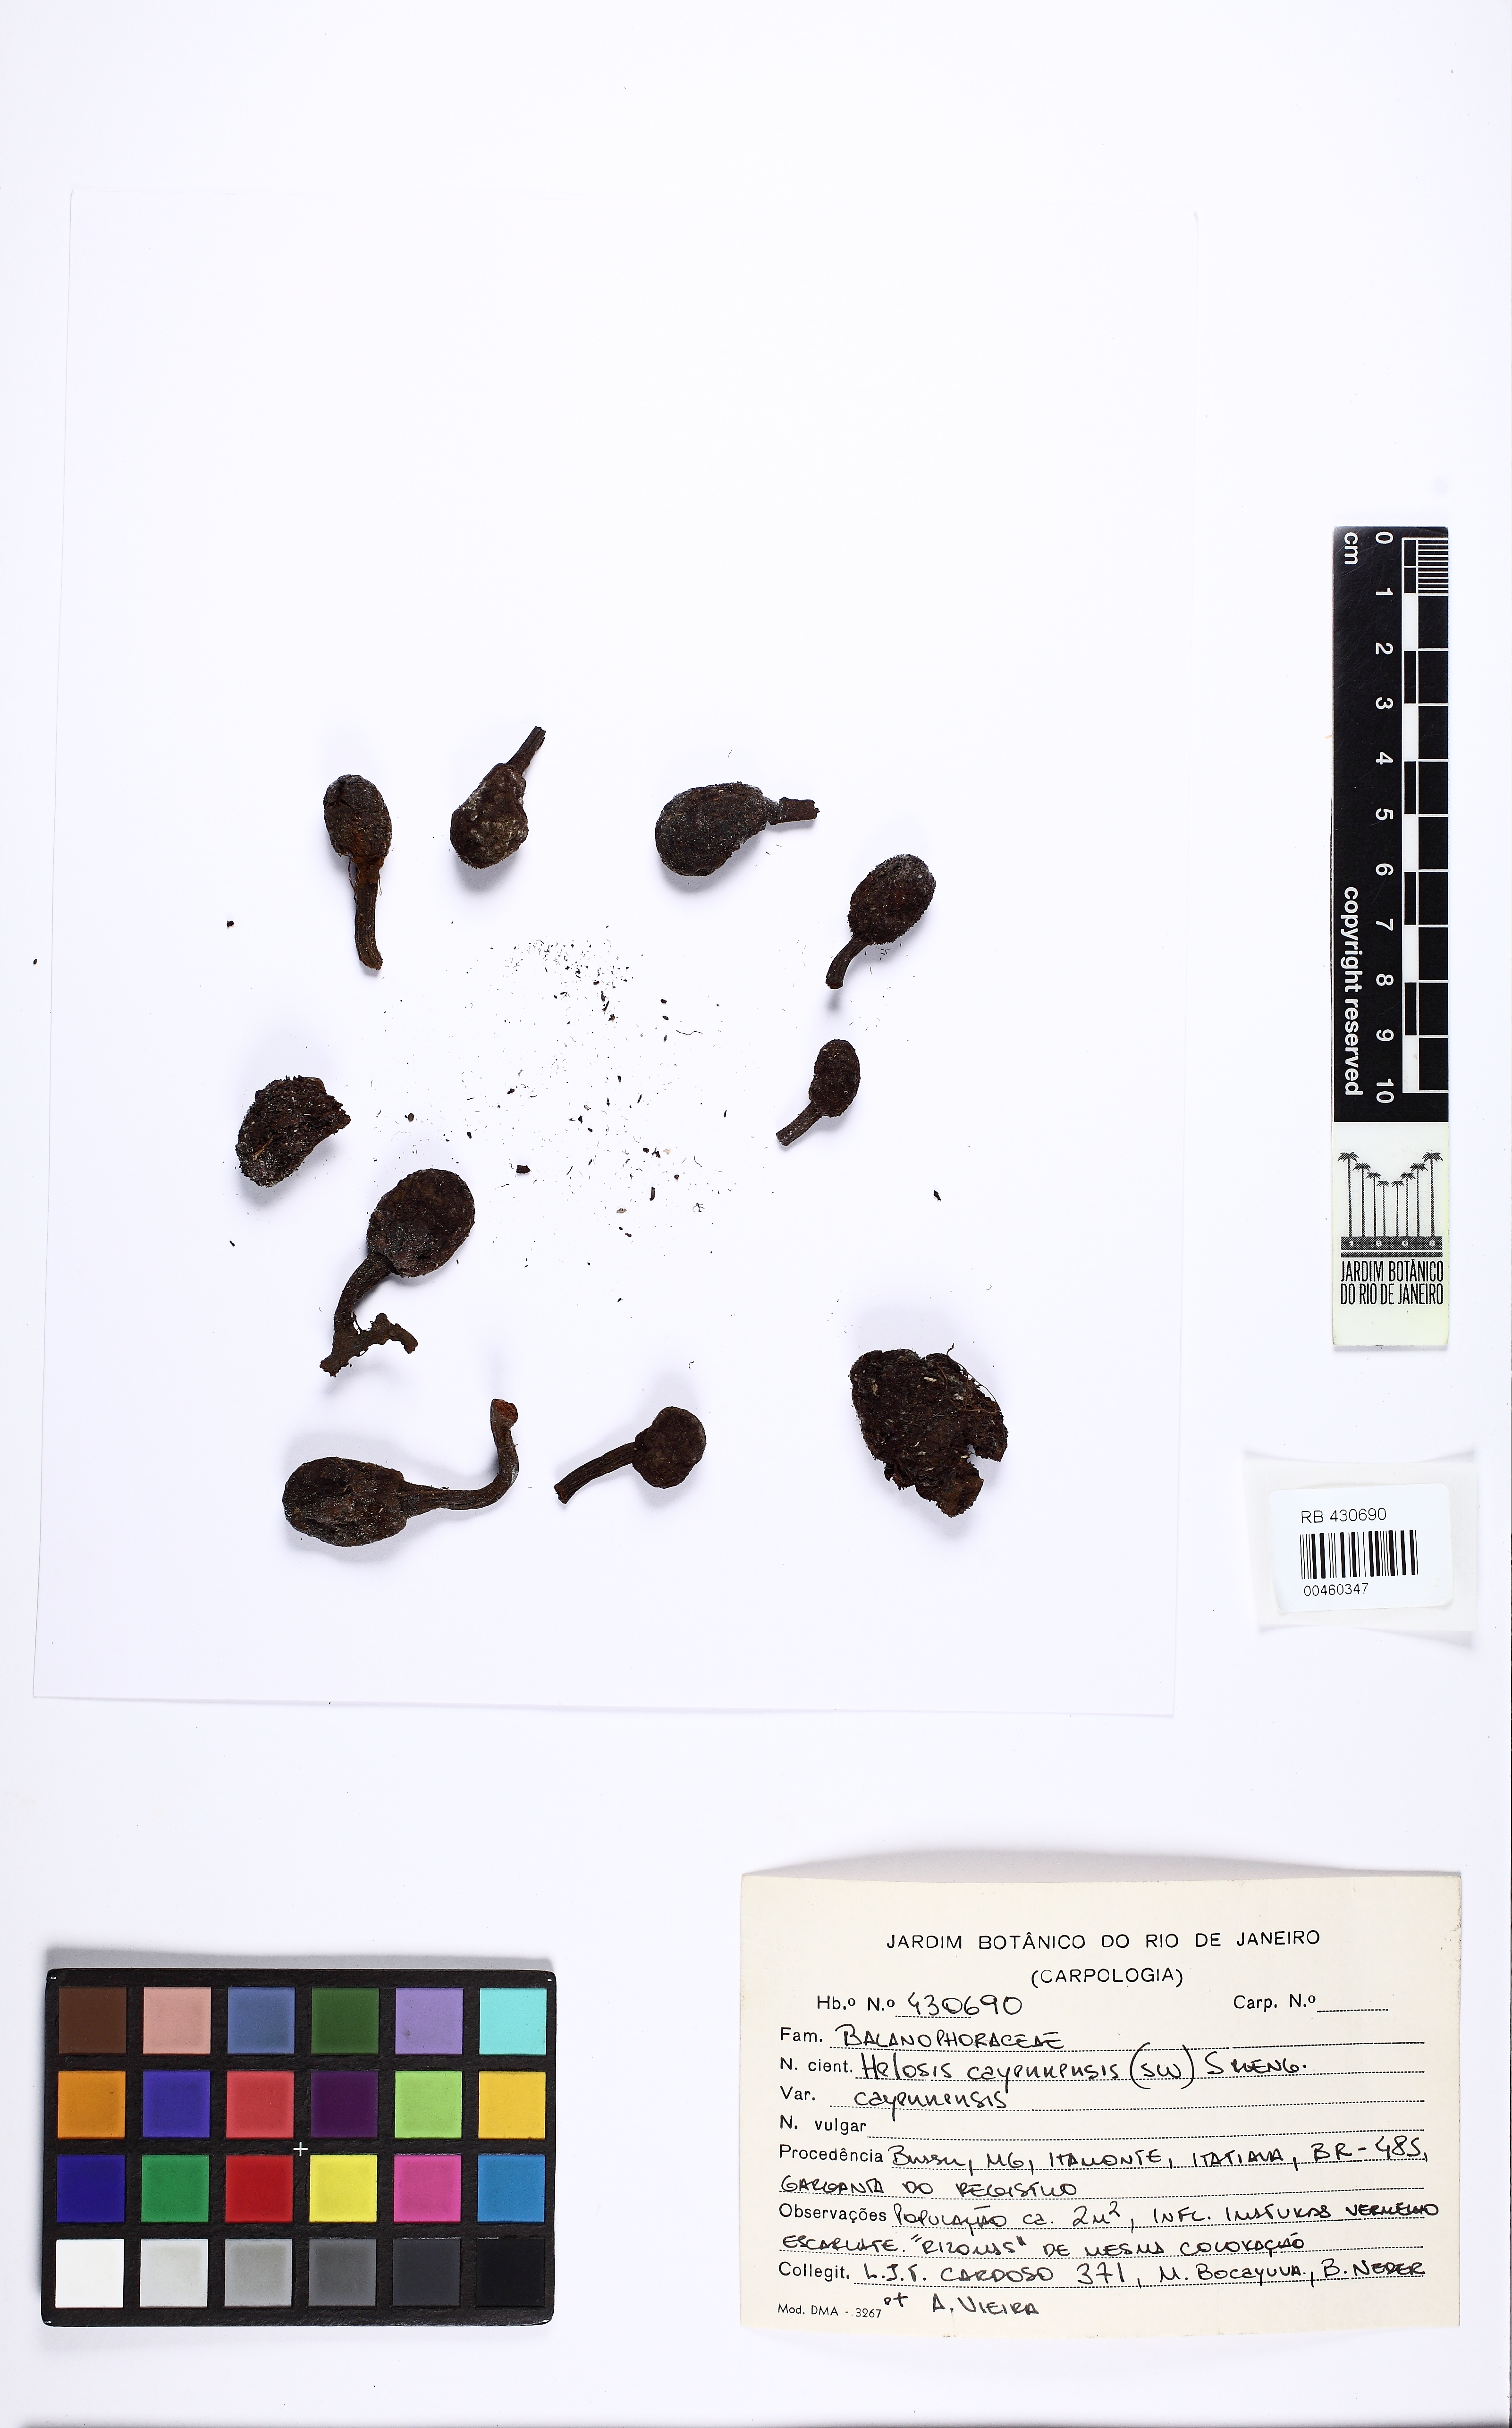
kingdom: Plantae
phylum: Tracheophyta
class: Magnoliopsida
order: Santalales
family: Balanophoraceae
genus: Helosis
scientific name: Helosis cayennensis
